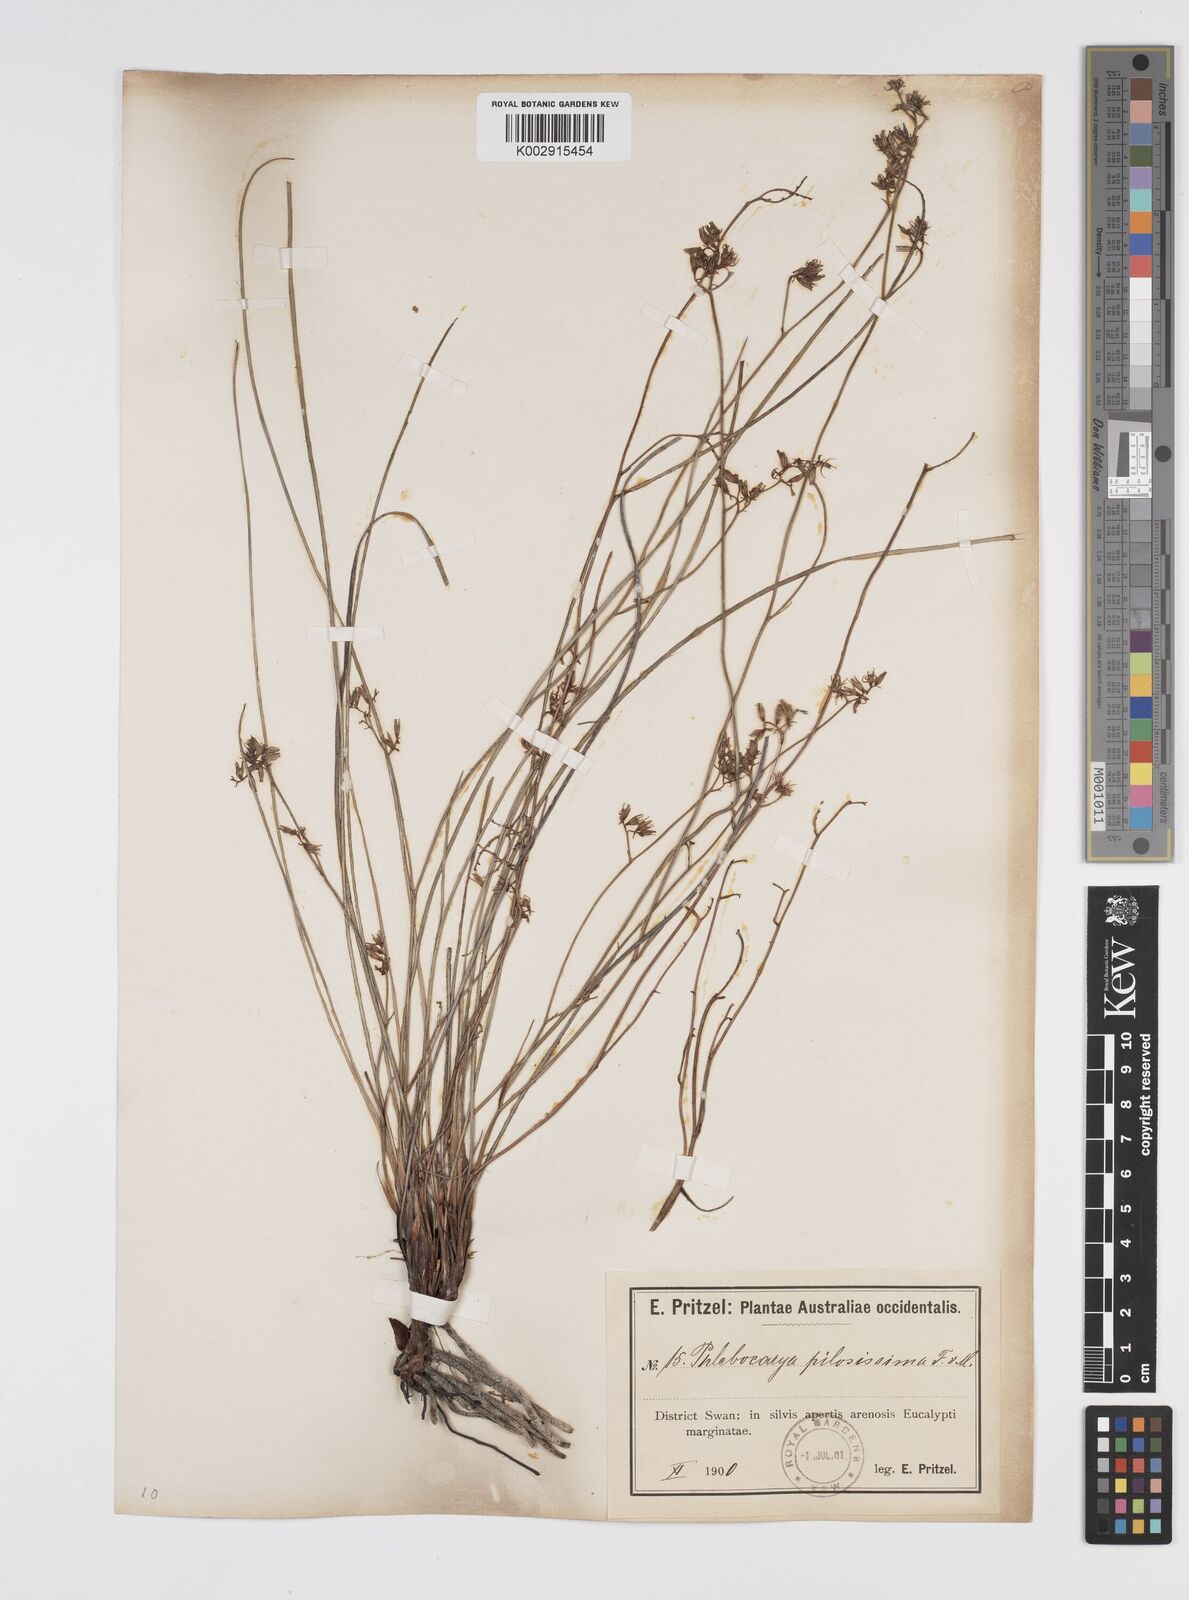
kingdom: Plantae
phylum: Tracheophyta
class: Liliopsida
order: Commelinales
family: Haemodoraceae
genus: Phlebocarya
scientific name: Phlebocarya pilosissima
